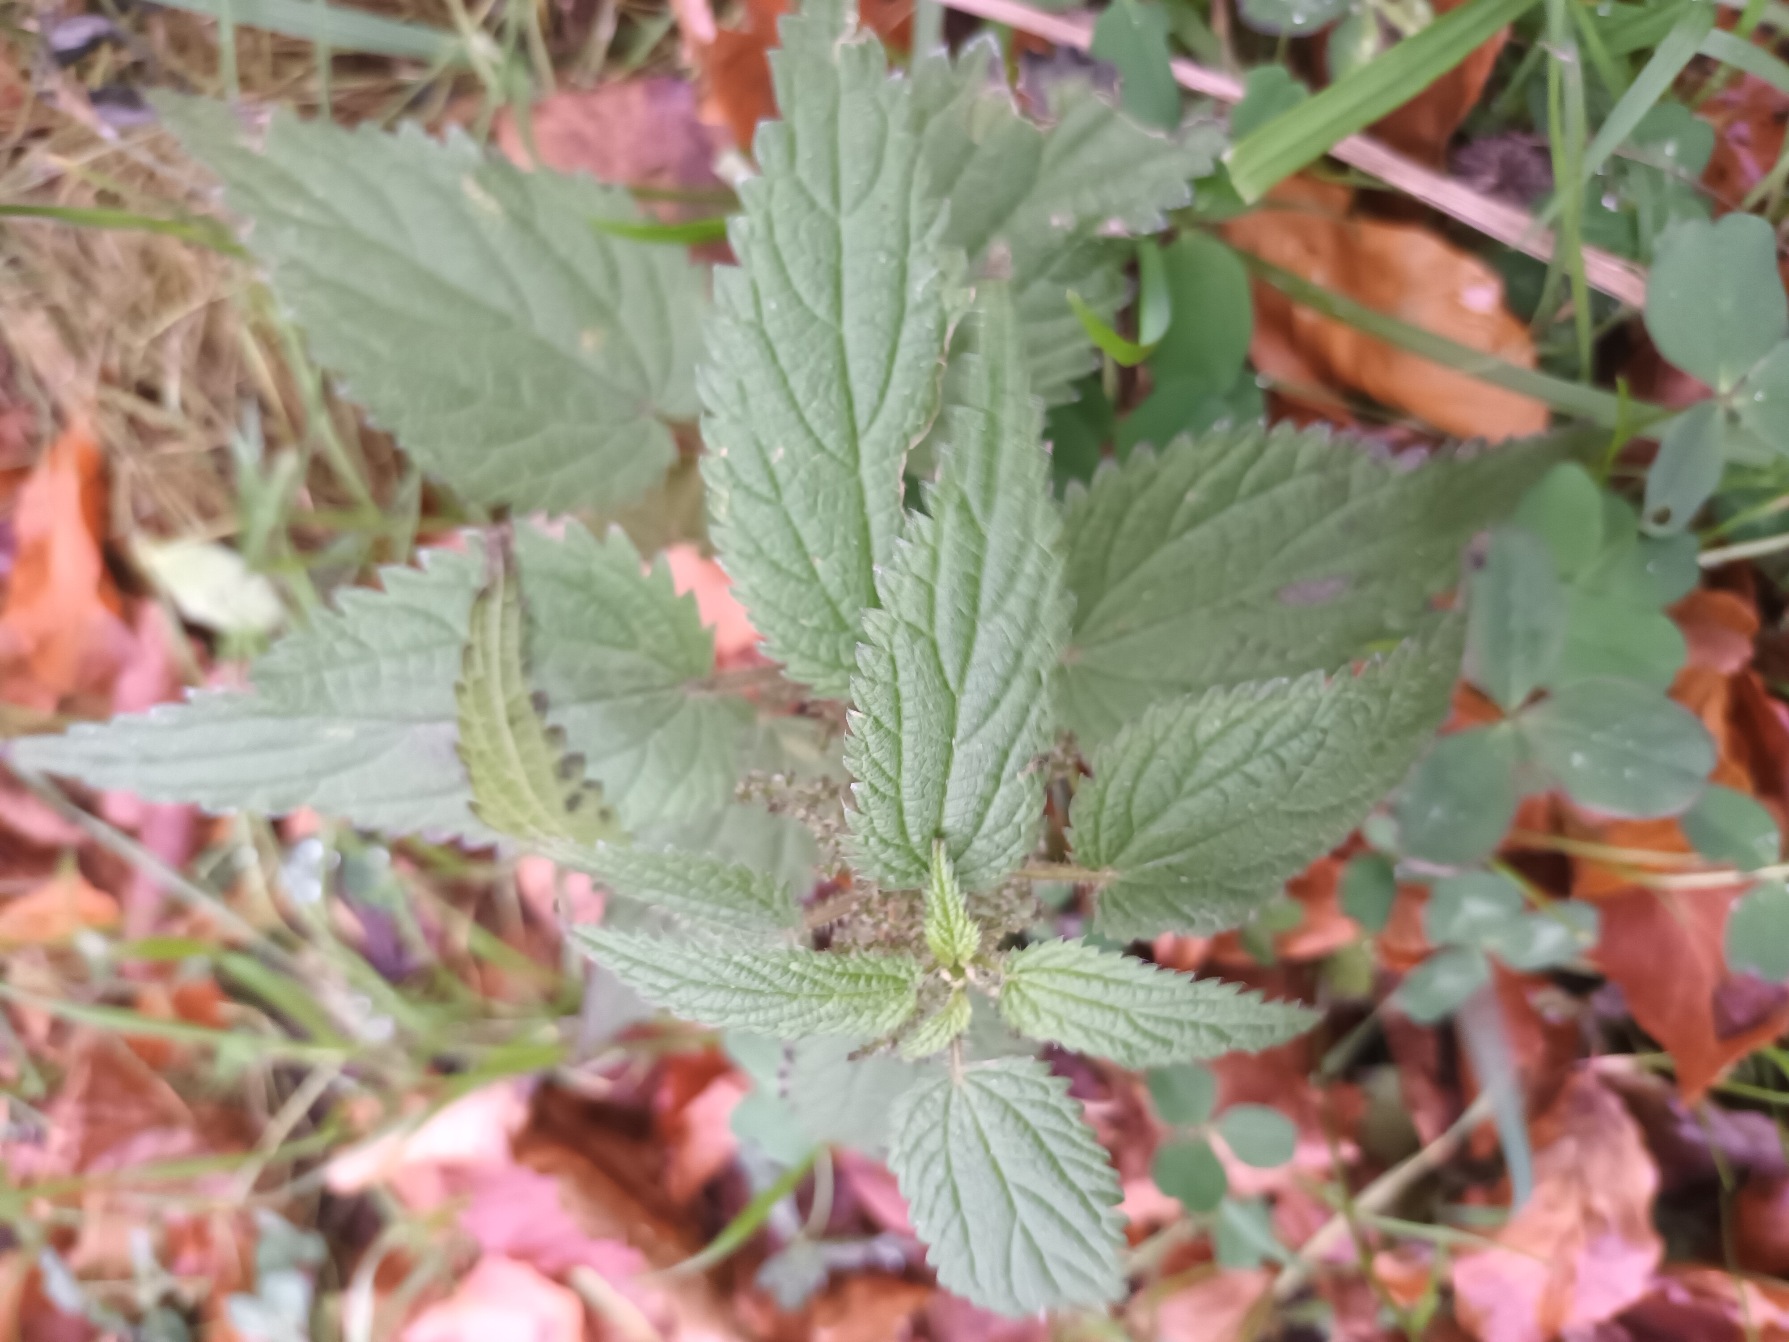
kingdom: Plantae
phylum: Tracheophyta
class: Magnoliopsida
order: Rosales
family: Urticaceae
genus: Urtica
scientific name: Urtica dioica
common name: Stor nælde
